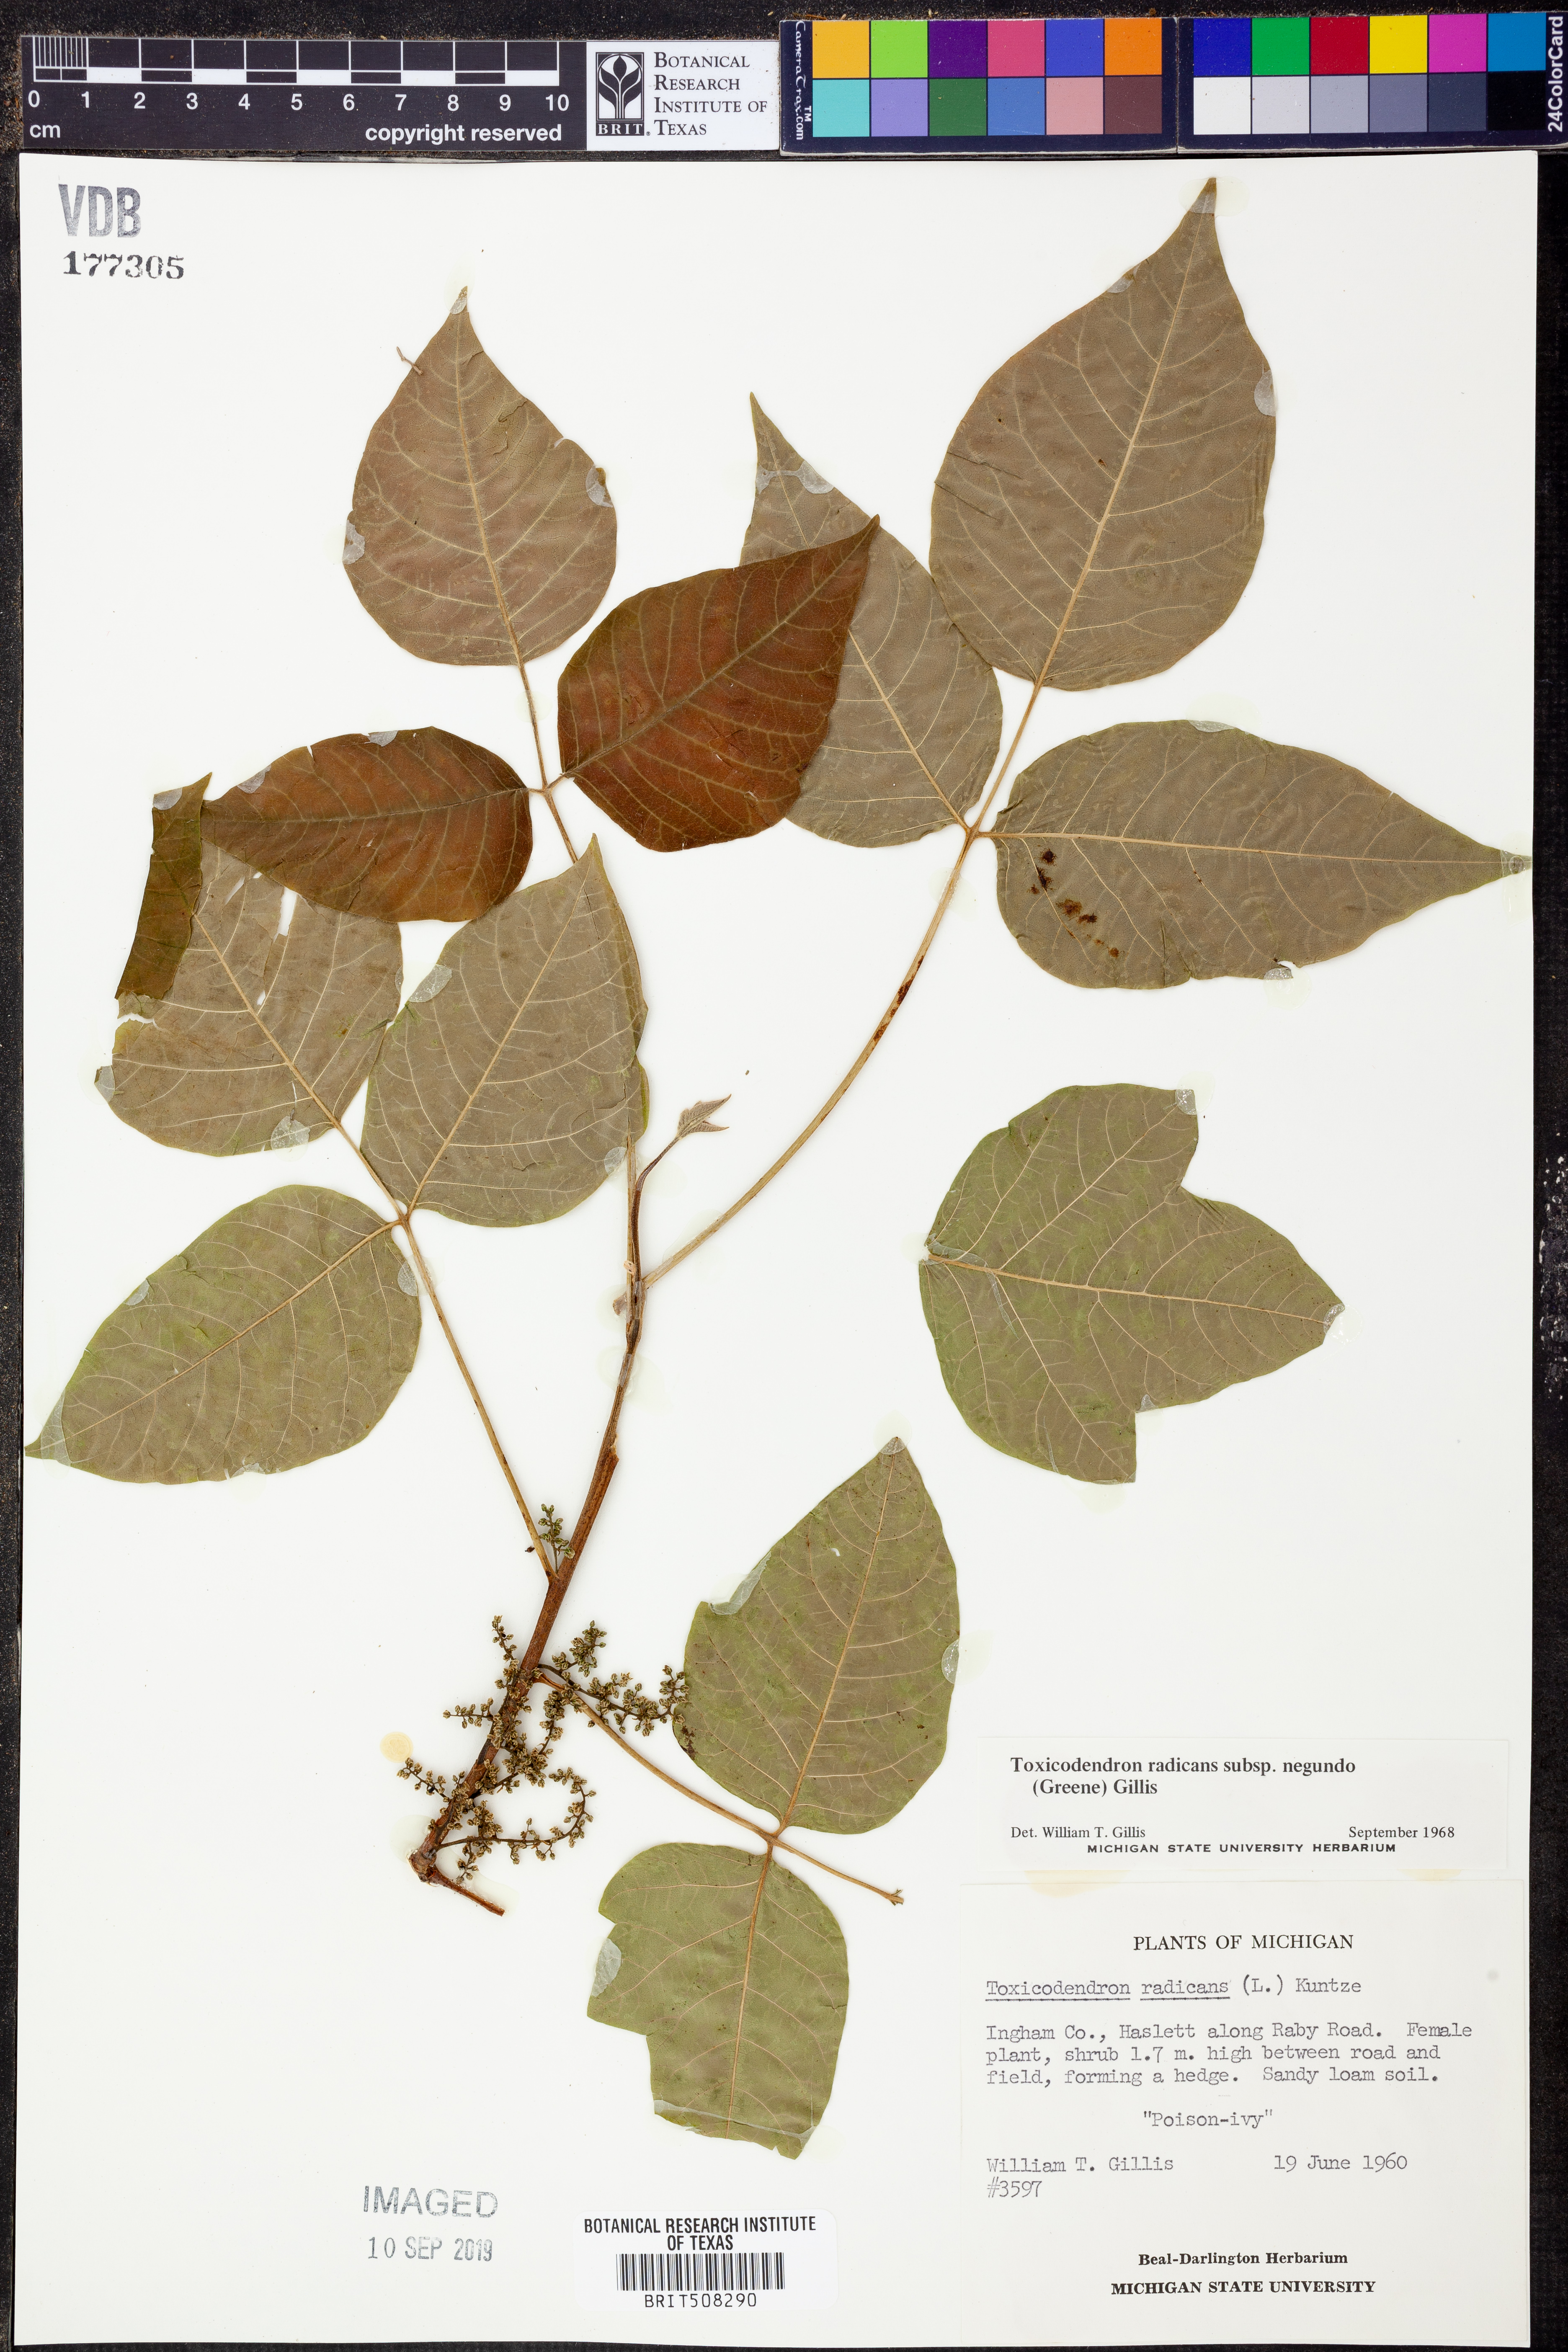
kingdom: Plantae
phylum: Tracheophyta
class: Magnoliopsida
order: Sapindales
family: Anacardiaceae
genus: Toxicodendron
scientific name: Toxicodendron radicans
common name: Poison ivy
